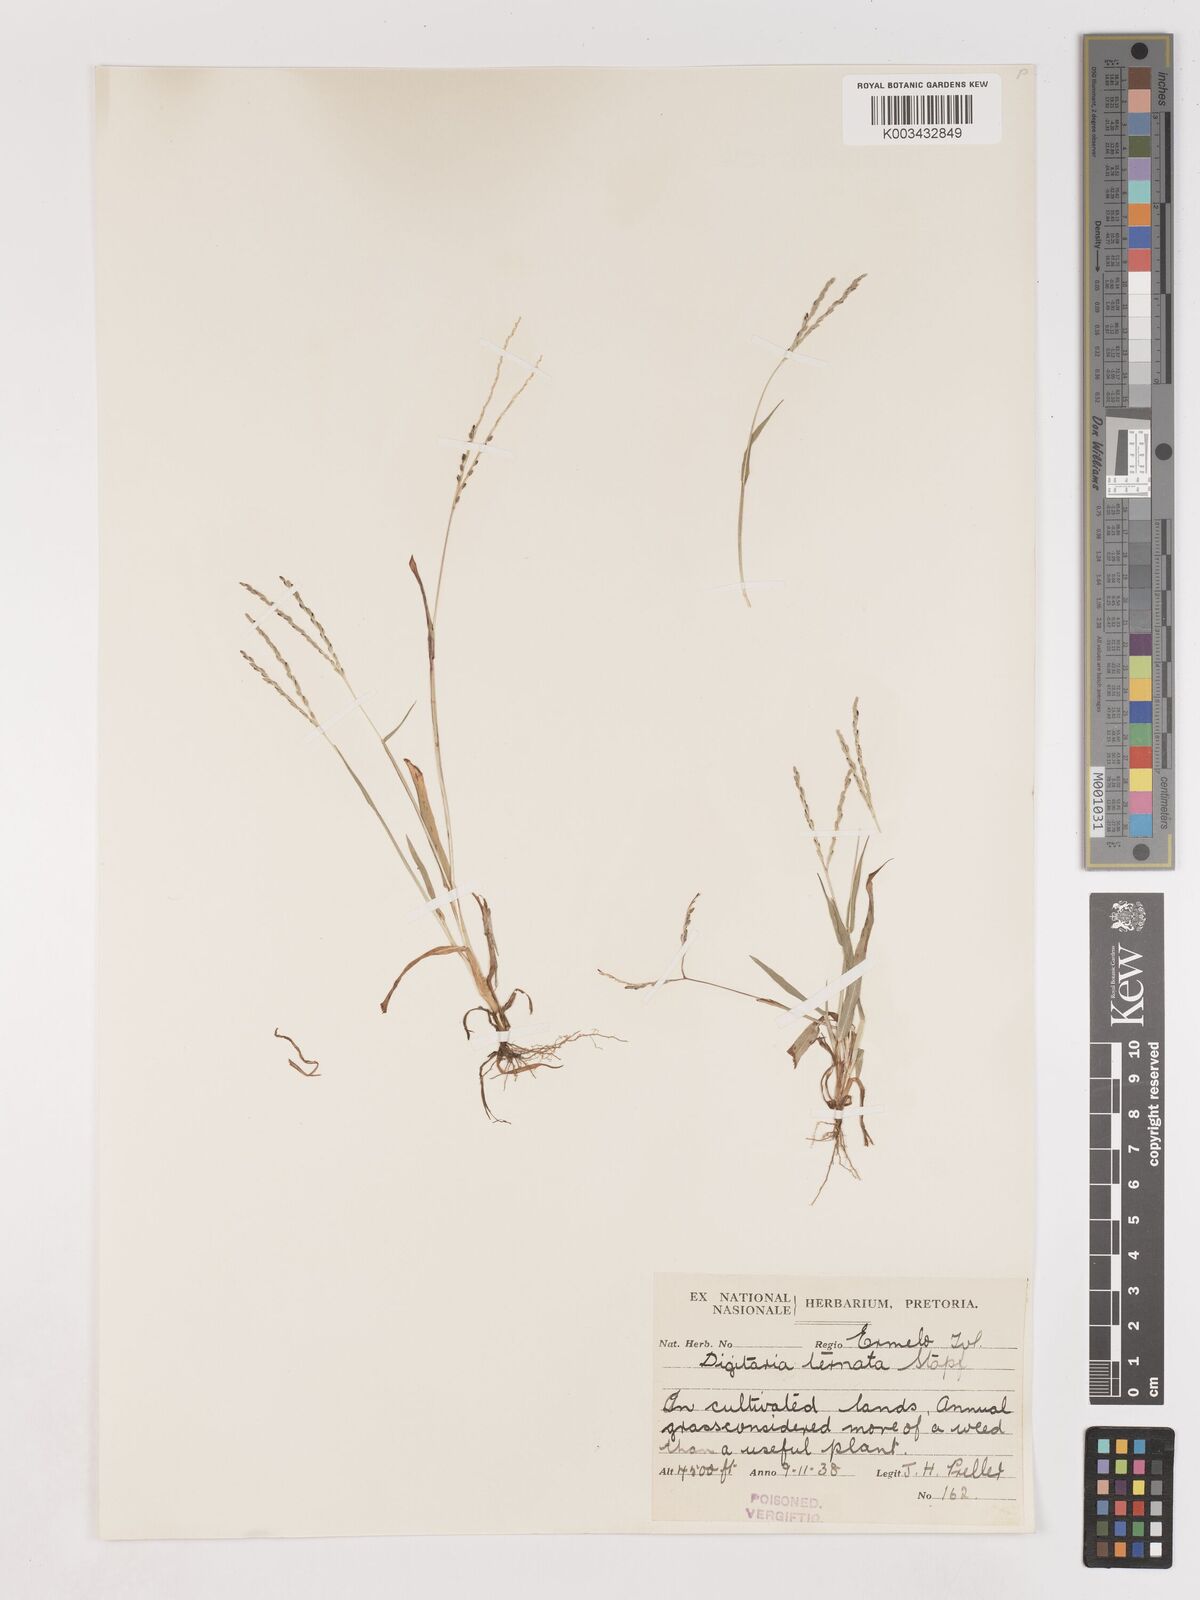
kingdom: Plantae
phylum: Tracheophyta
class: Liliopsida
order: Poales
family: Poaceae
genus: Digitaria
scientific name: Digitaria ternata
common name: Blackseed crabgrass
